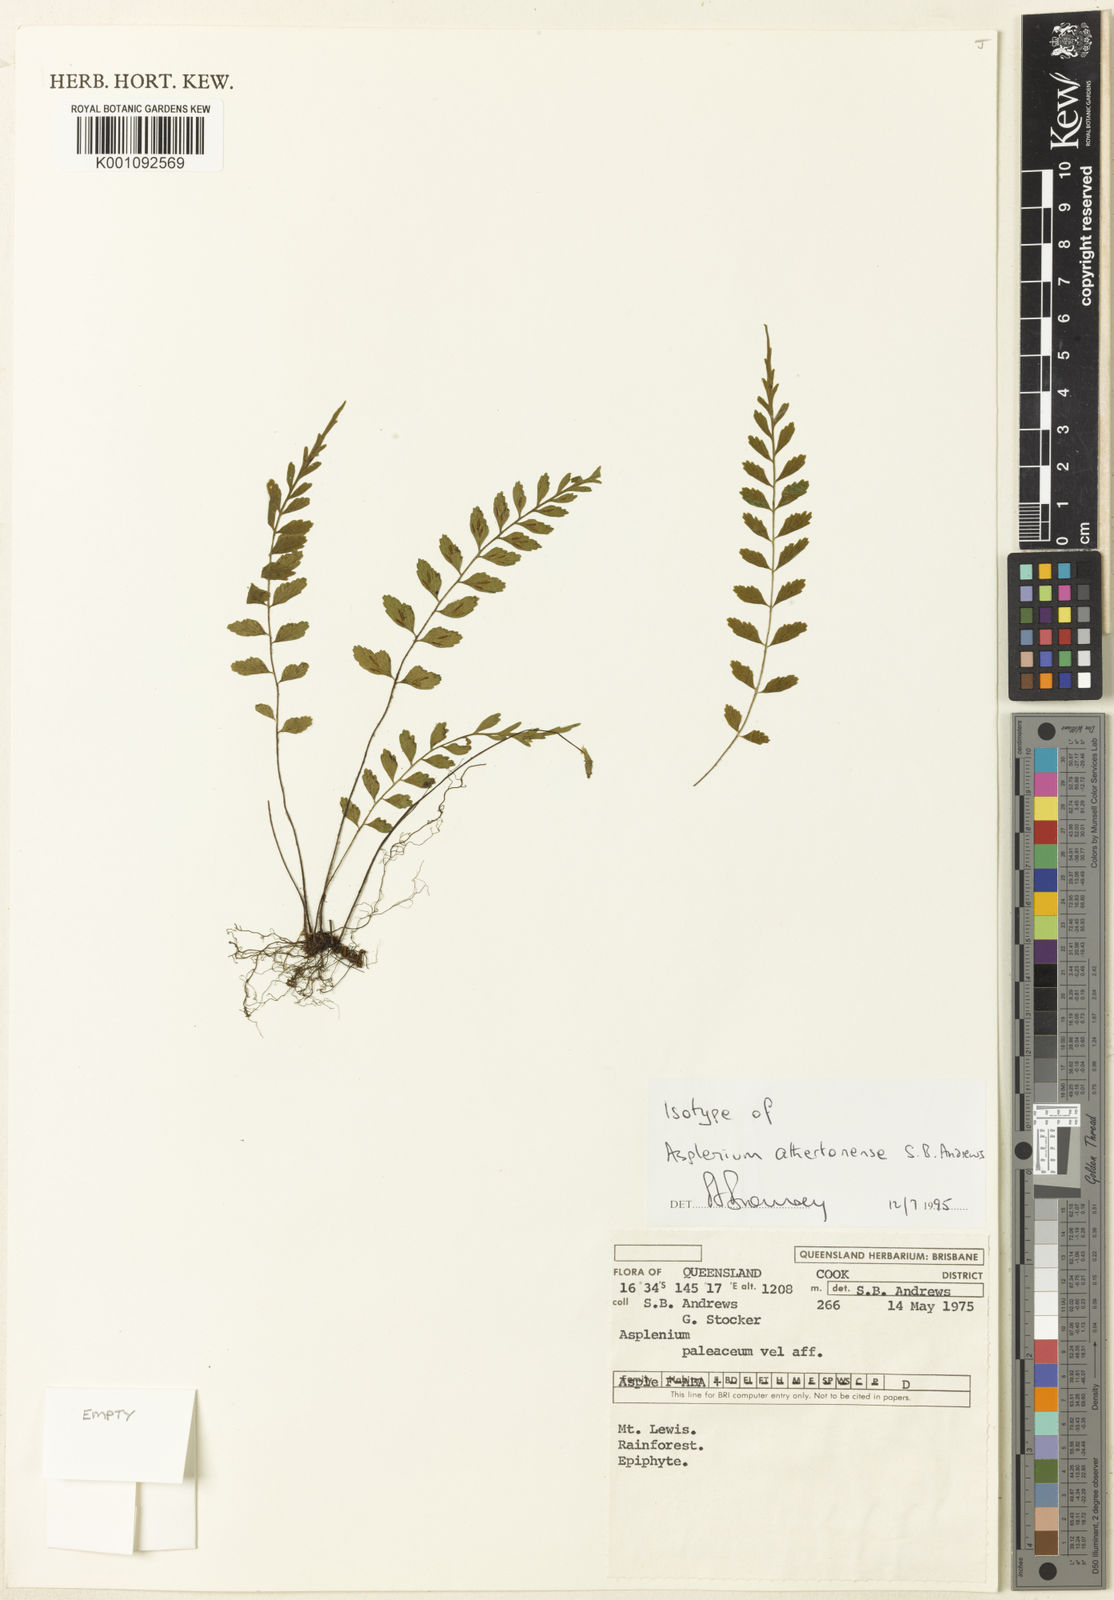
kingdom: Plantae
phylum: Tracheophyta
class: Polypodiopsida
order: Polypodiales
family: Aspleniaceae
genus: Asplenium
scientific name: Asplenium athertonense
